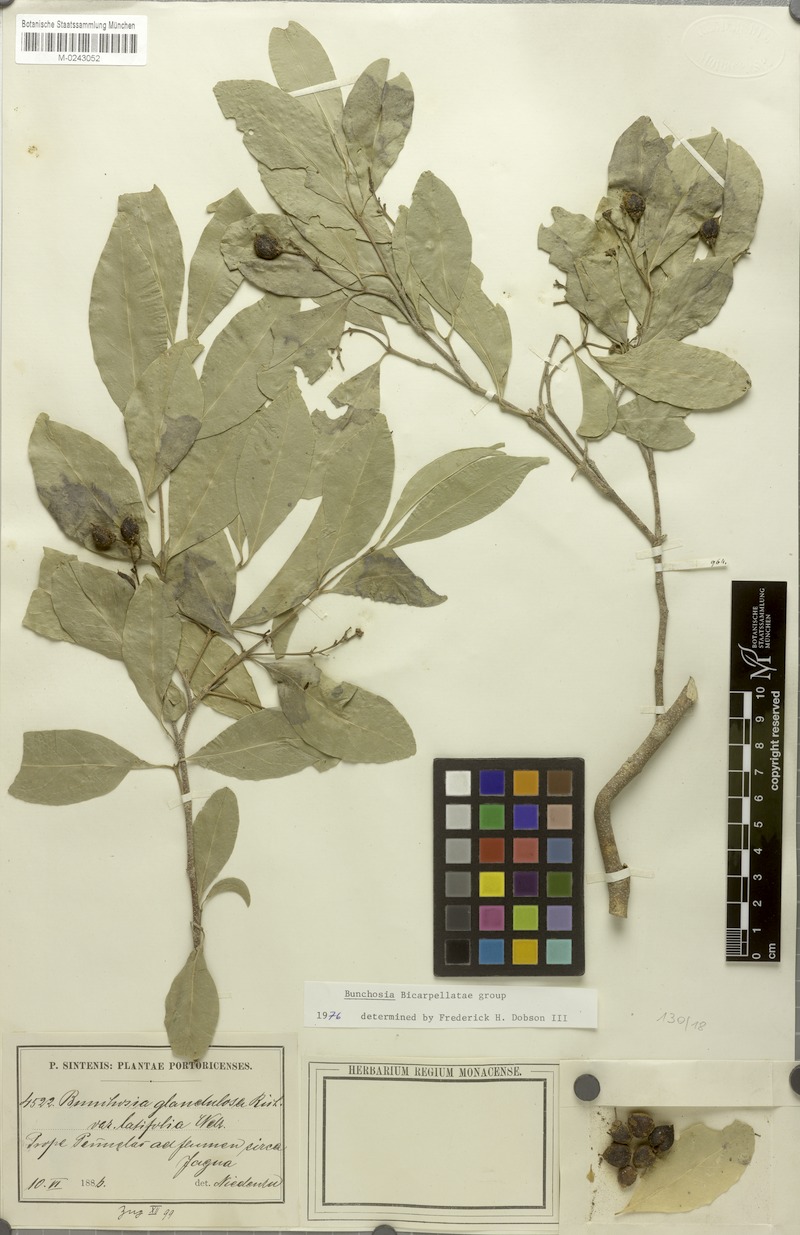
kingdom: Plantae
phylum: Tracheophyta
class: Magnoliopsida
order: Malpighiales
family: Malpighiaceae
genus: Bunchosia
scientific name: Bunchosia glandulosa
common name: Cafe forastero
